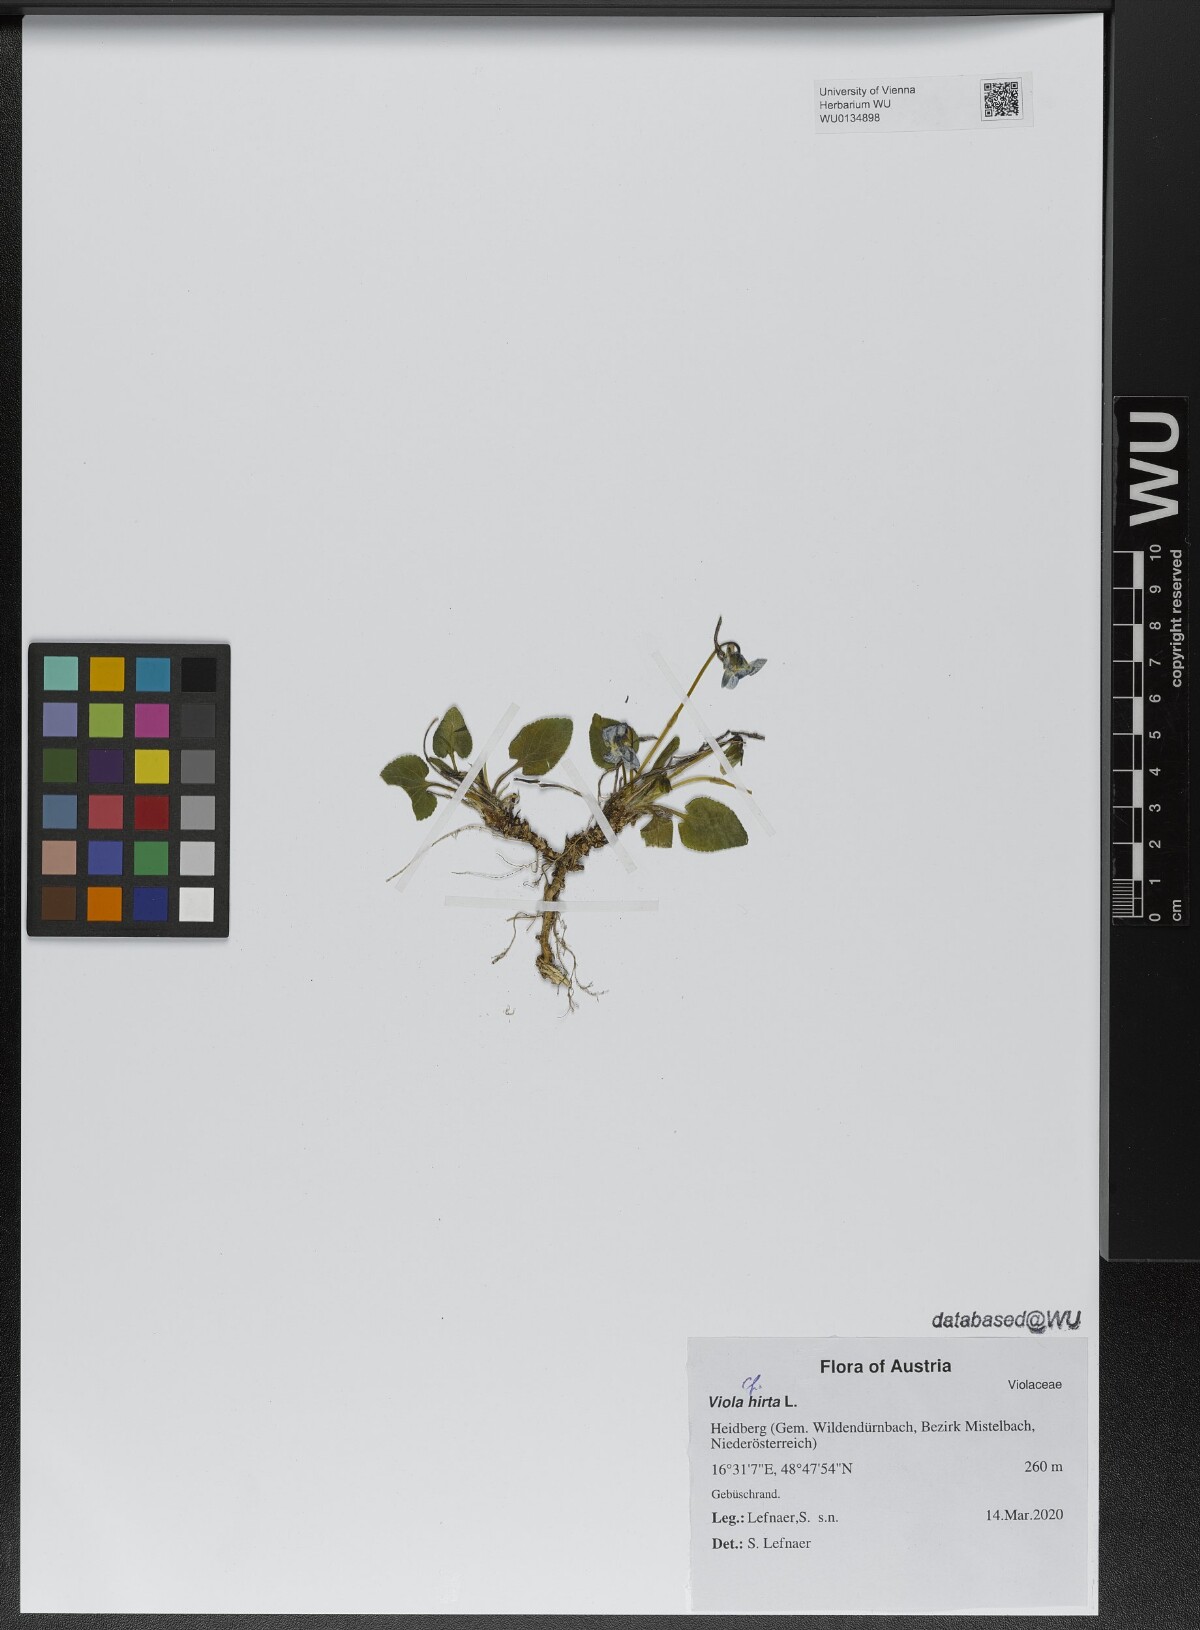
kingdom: Plantae
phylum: Tracheophyta
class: Magnoliopsida
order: Malpighiales
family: Violaceae
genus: Viola
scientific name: Viola hirta
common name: Hairy violet
